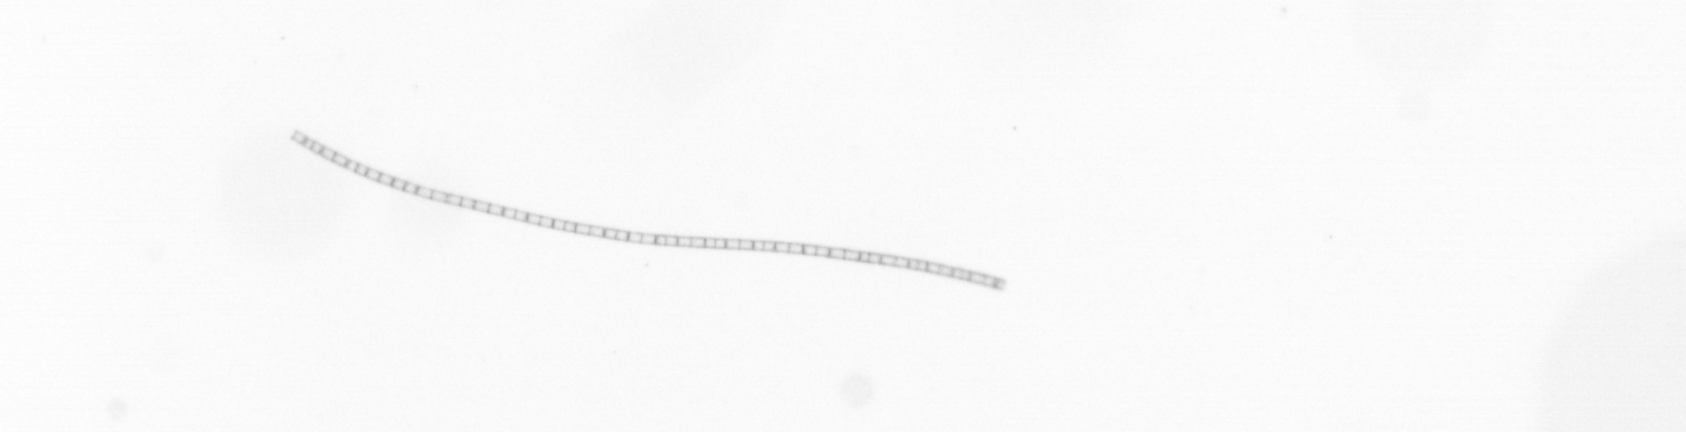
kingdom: Chromista
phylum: Ochrophyta
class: Bacillariophyceae
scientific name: Bacillariophyceae
